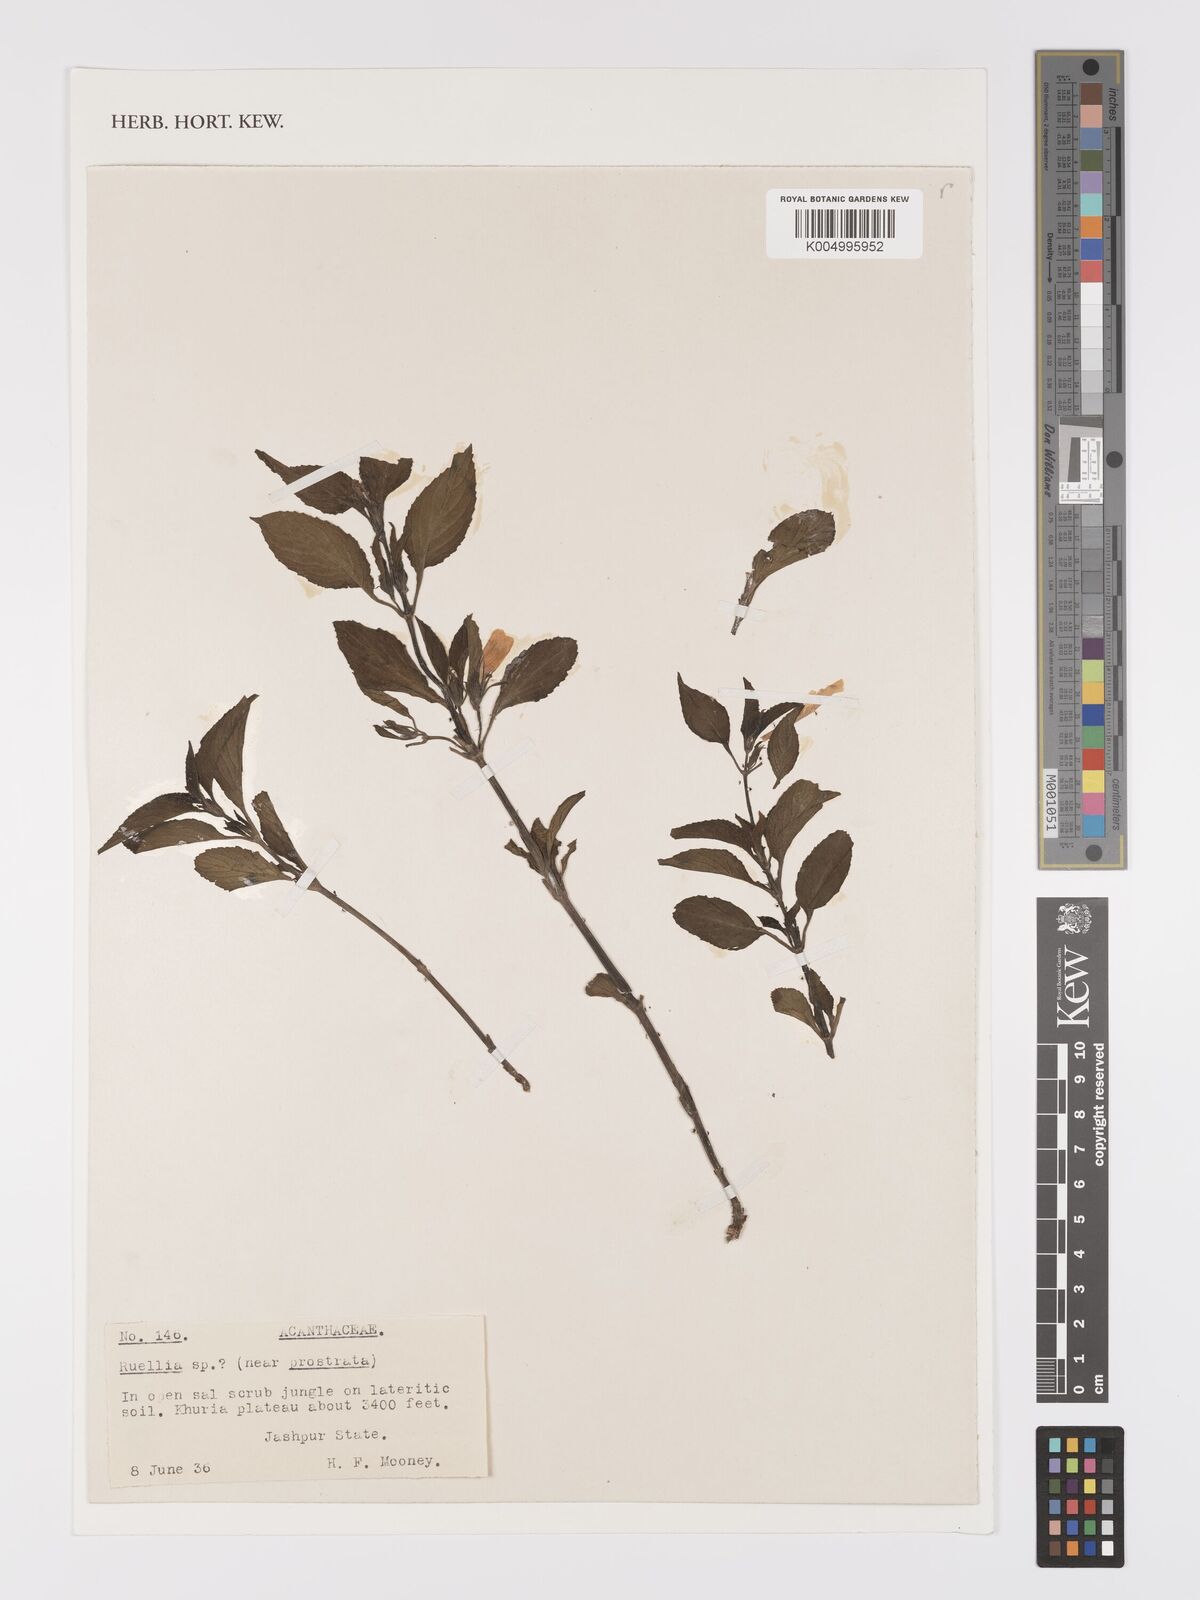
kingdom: Plantae
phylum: Tracheophyta
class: Magnoliopsida
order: Lamiales
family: Acanthaceae
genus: Ruellia
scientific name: Ruellia
